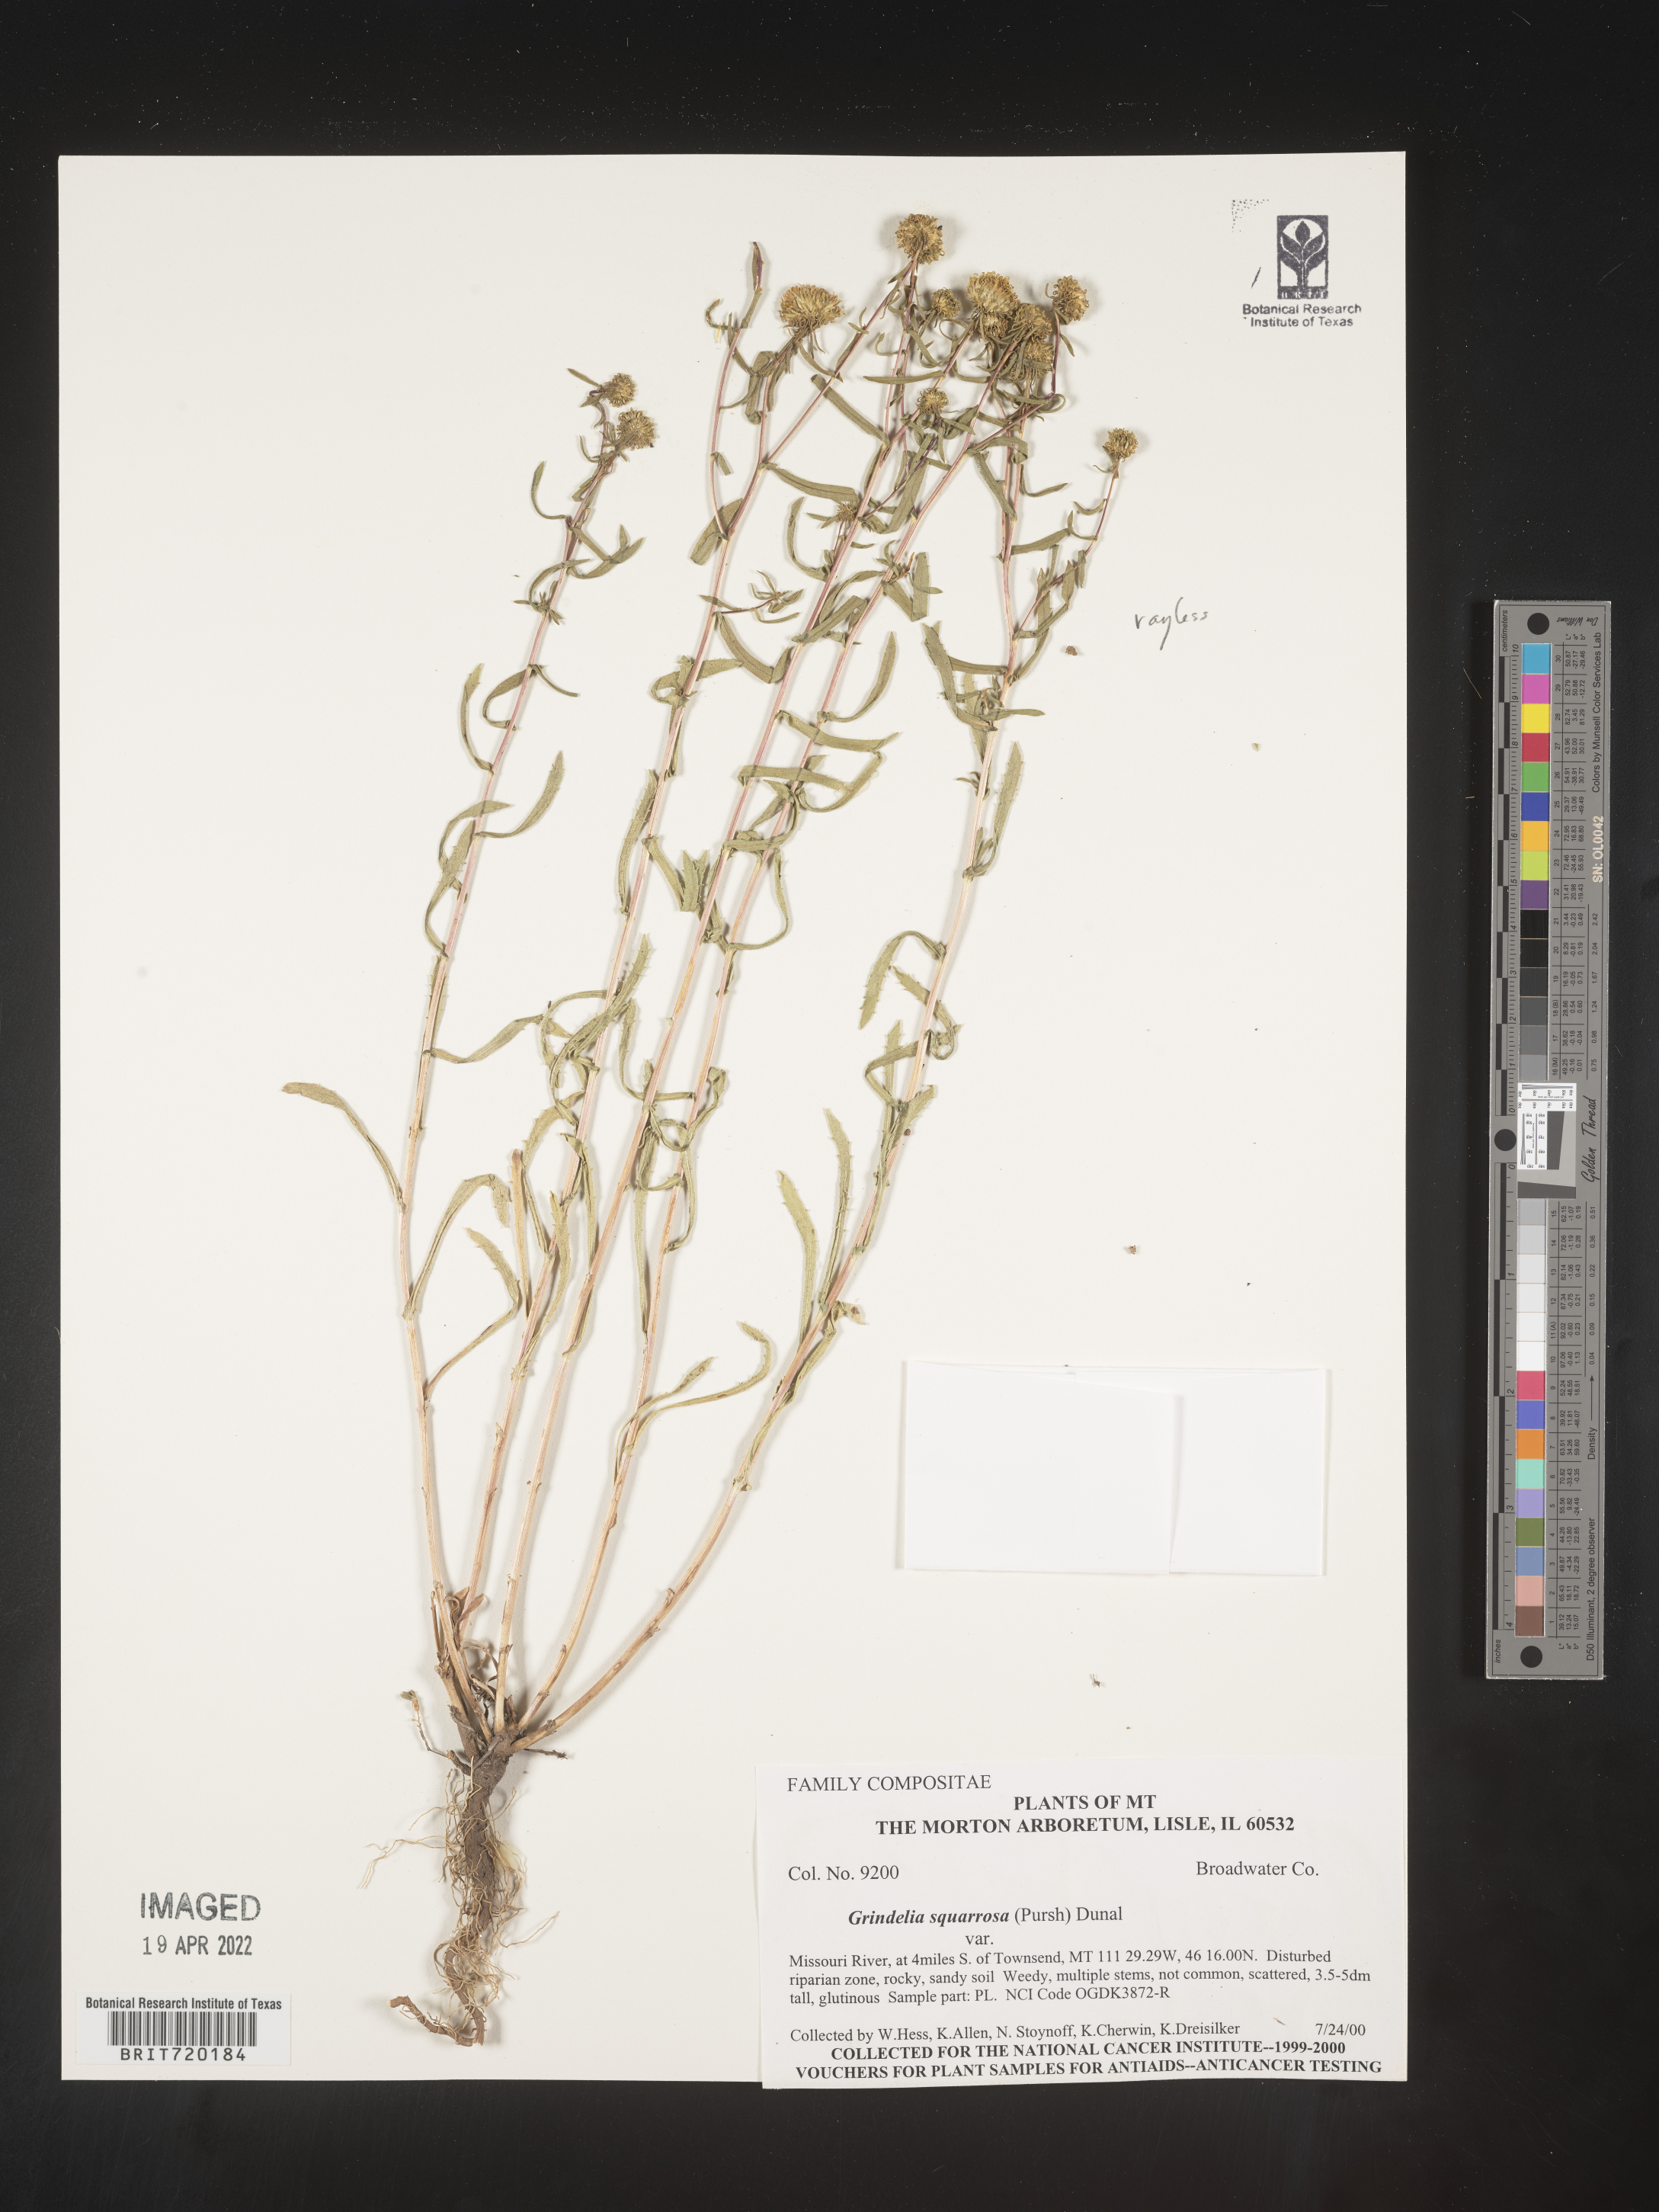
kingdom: Plantae
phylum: Tracheophyta
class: Magnoliopsida
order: Asterales
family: Asteraceae
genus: Grindelia
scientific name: Grindelia arizonica
